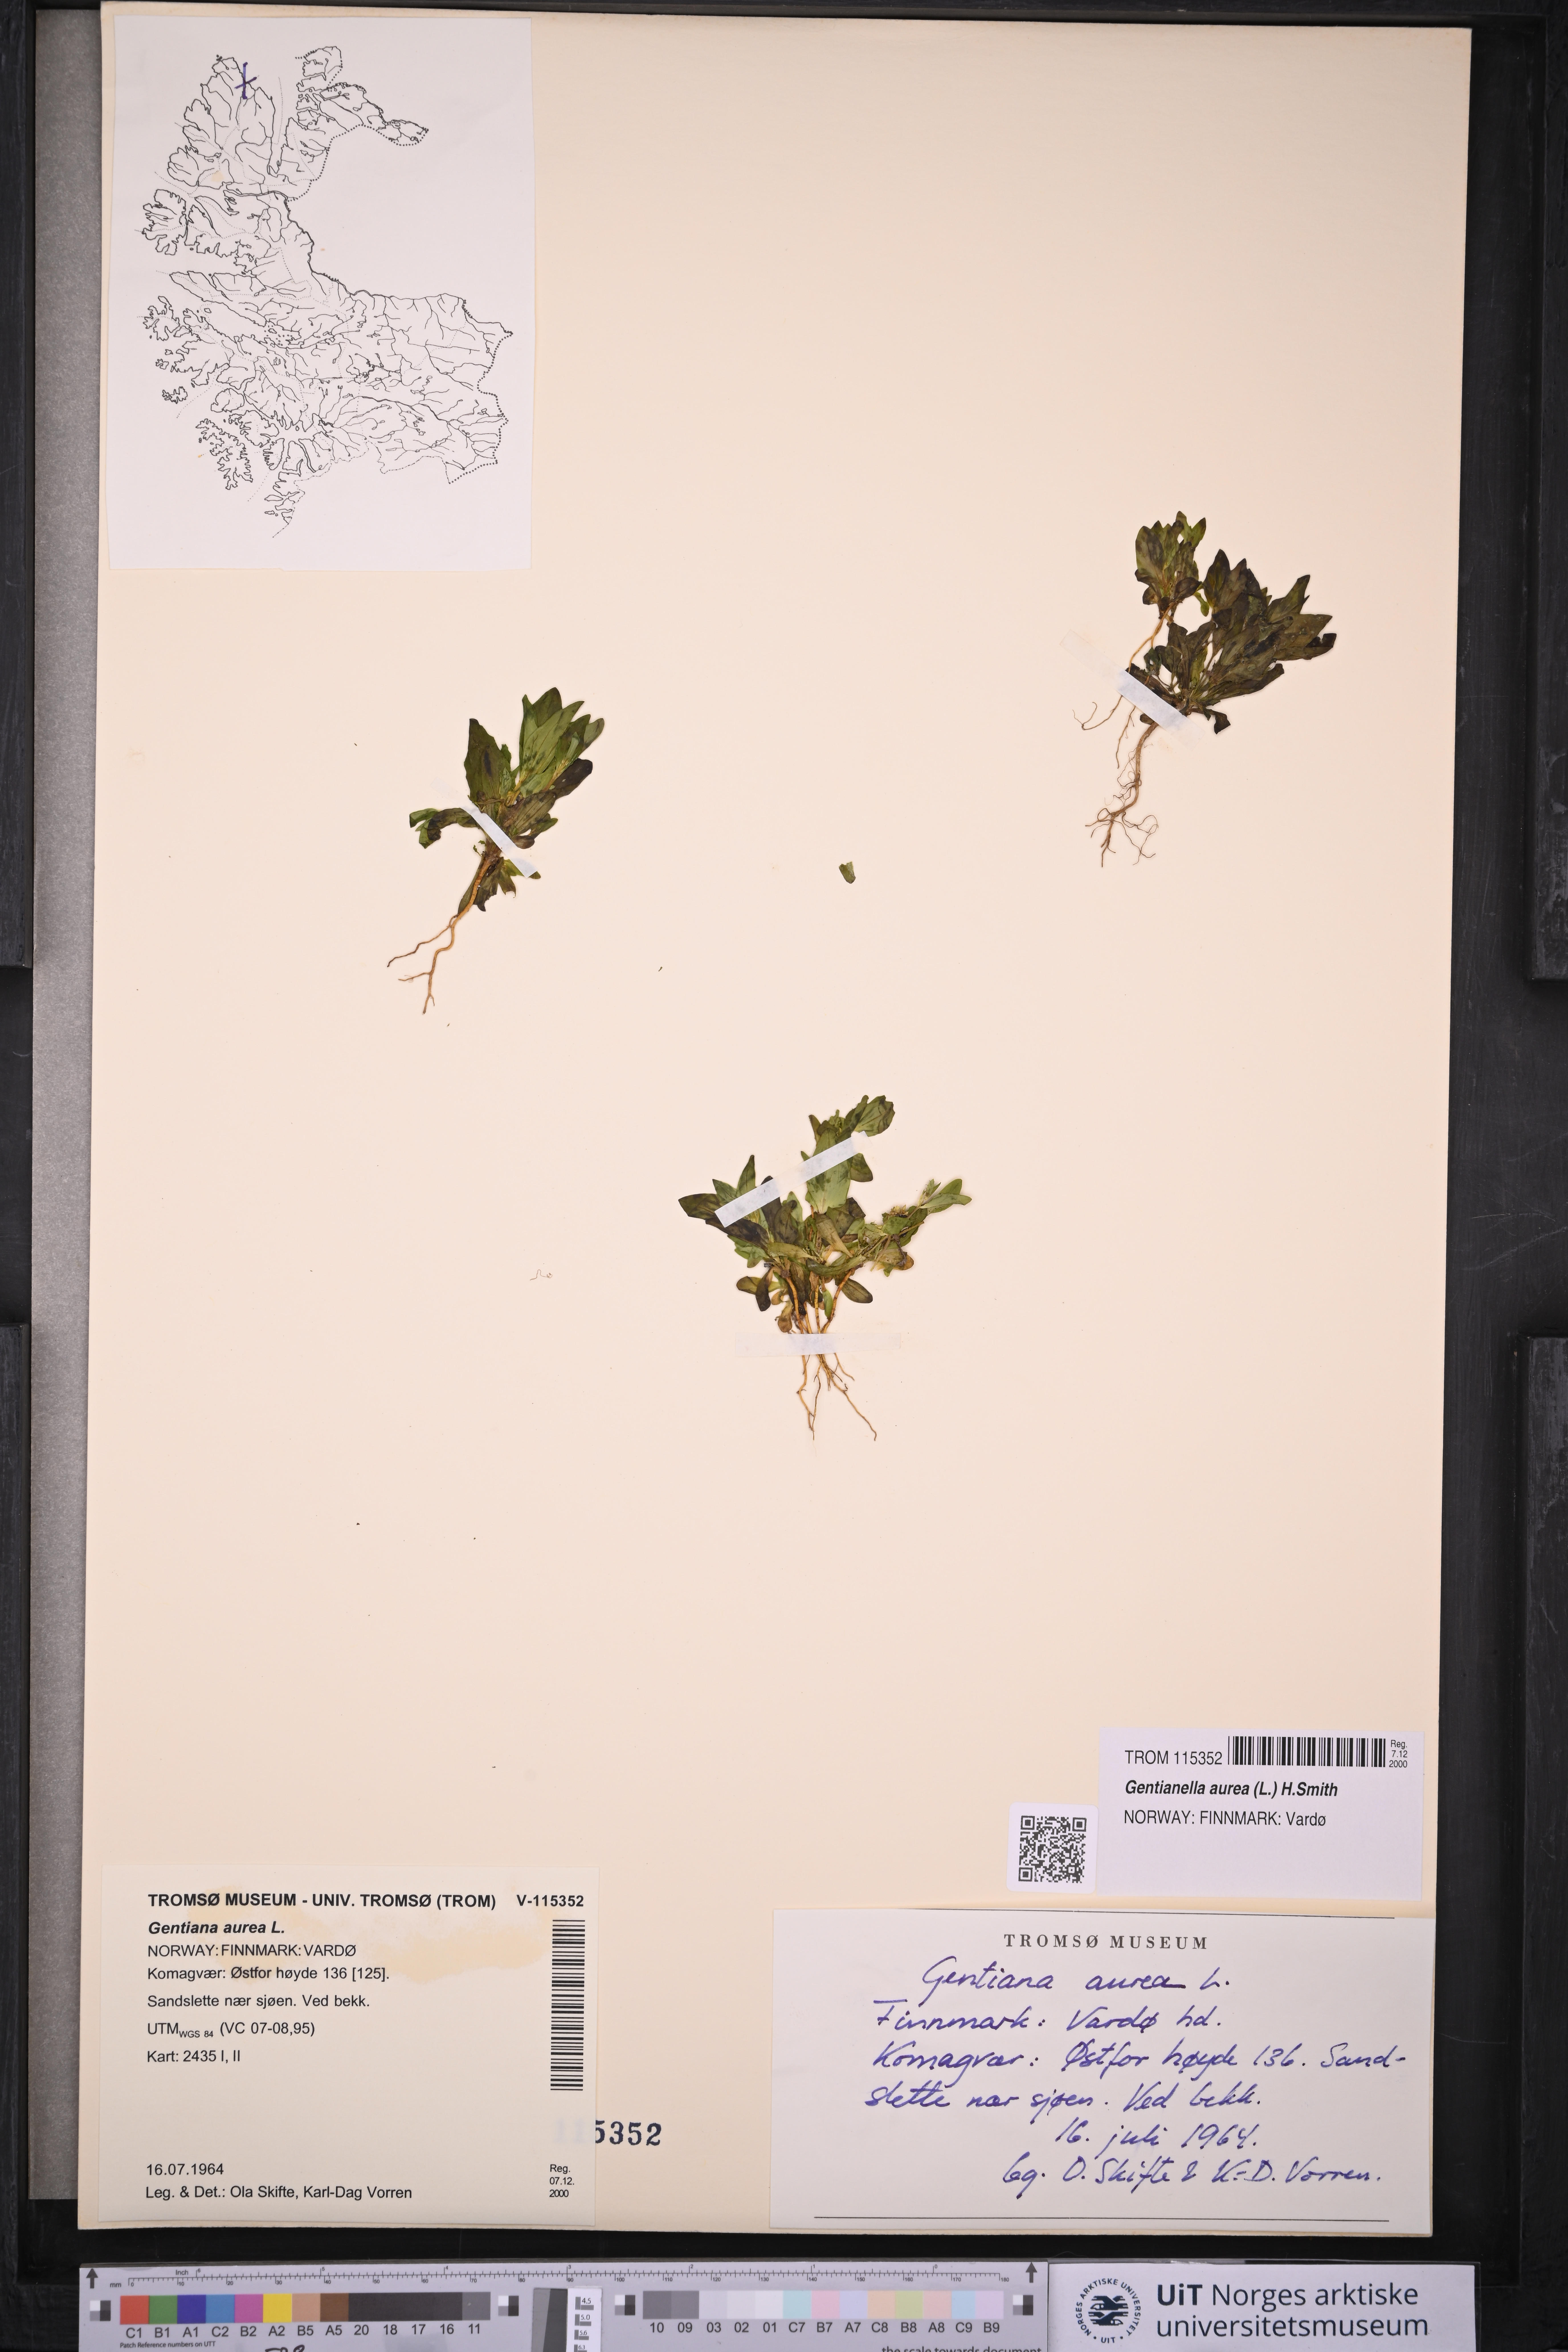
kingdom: Plantae
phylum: Tracheophyta
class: Magnoliopsida
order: Gentianales
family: Gentianaceae
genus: Gentianella
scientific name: Gentianella aurea
